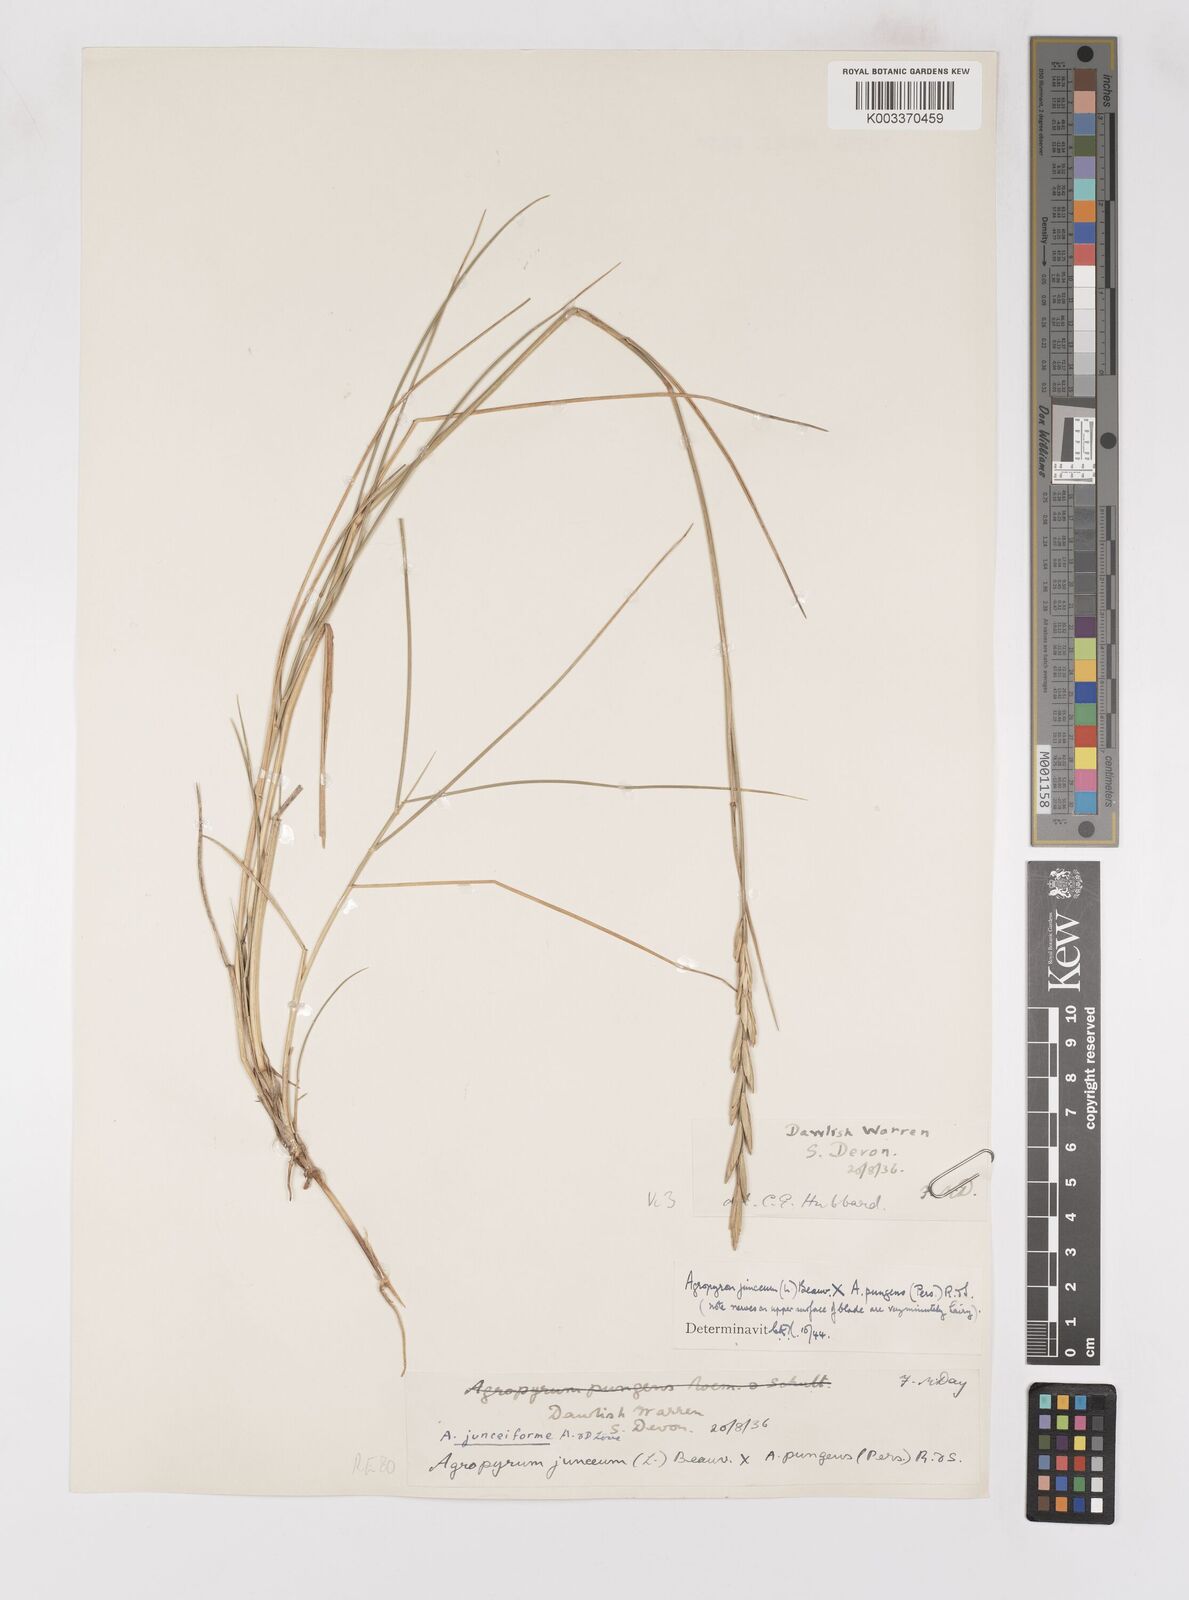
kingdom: Plantae
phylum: Tracheophyta
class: Liliopsida
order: Poales
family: Poaceae
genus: Thinoelymus
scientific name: Thinoelymus obtusiusculus
